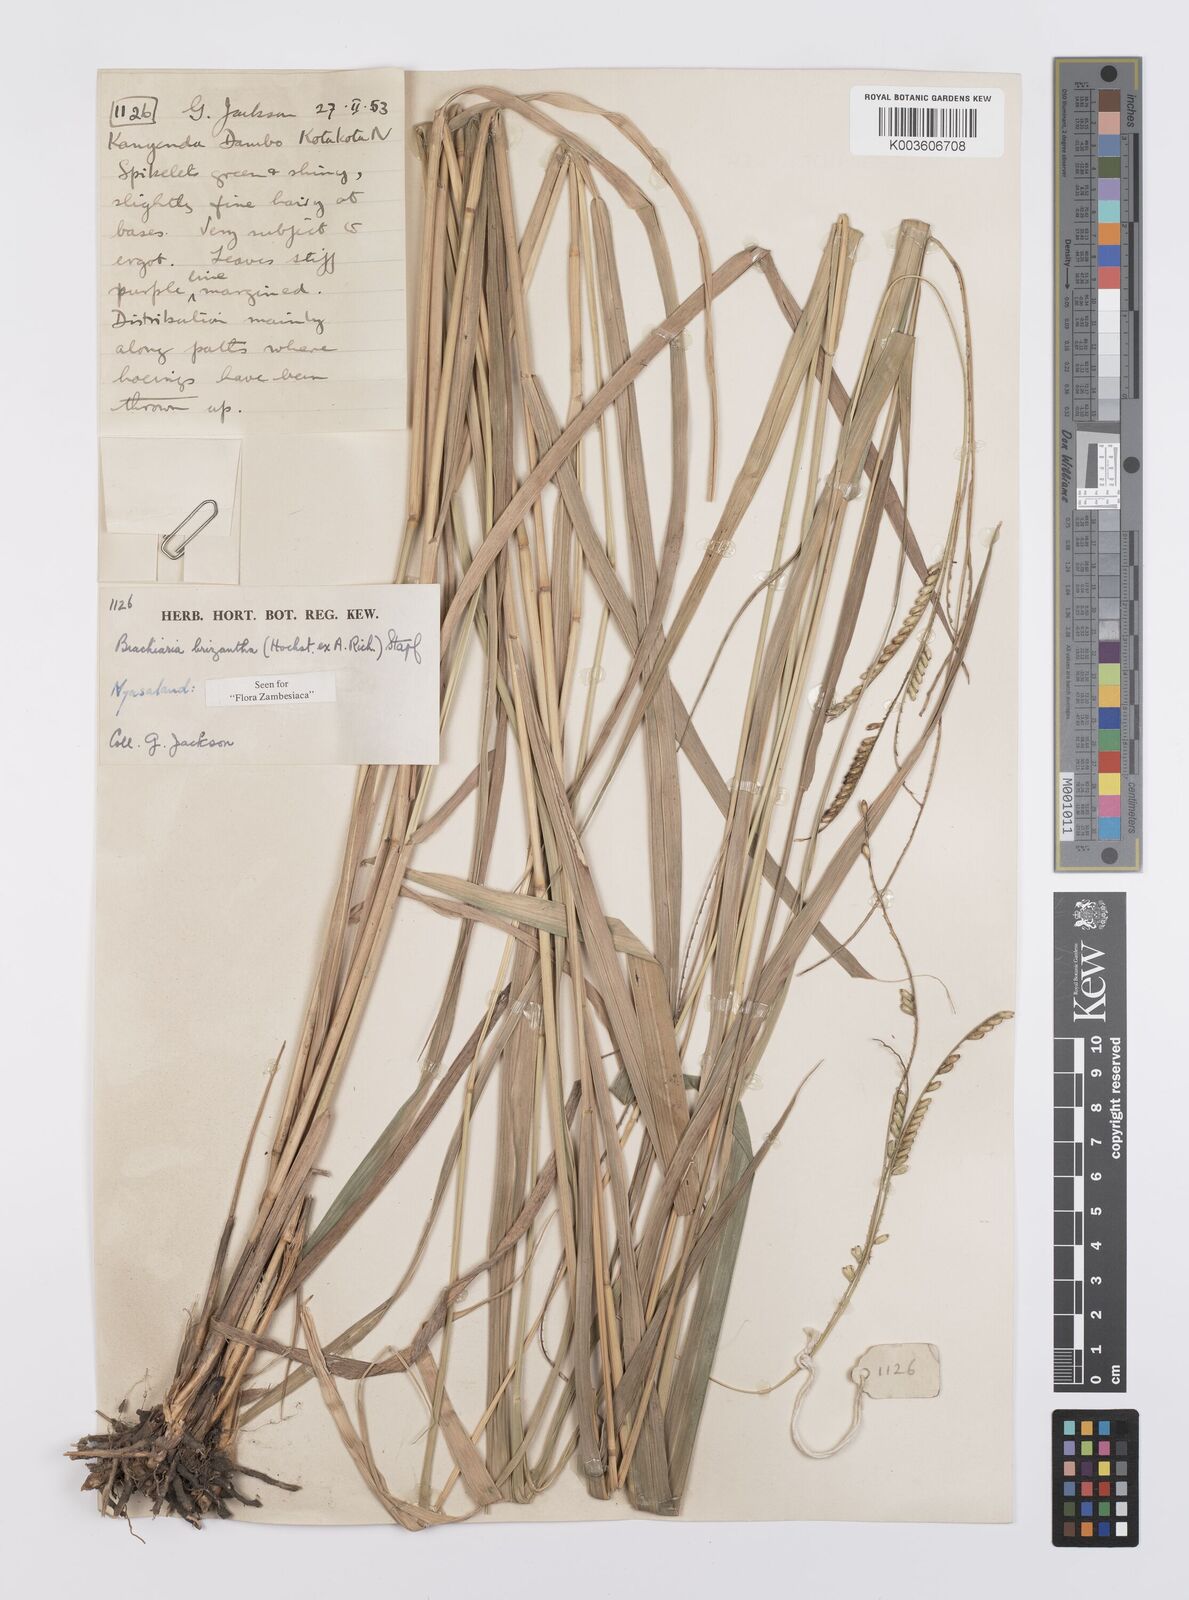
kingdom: Plantae
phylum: Tracheophyta
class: Liliopsida
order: Poales
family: Poaceae
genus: Urochloa
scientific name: Urochloa brizantha
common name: Palisade signalgrass
